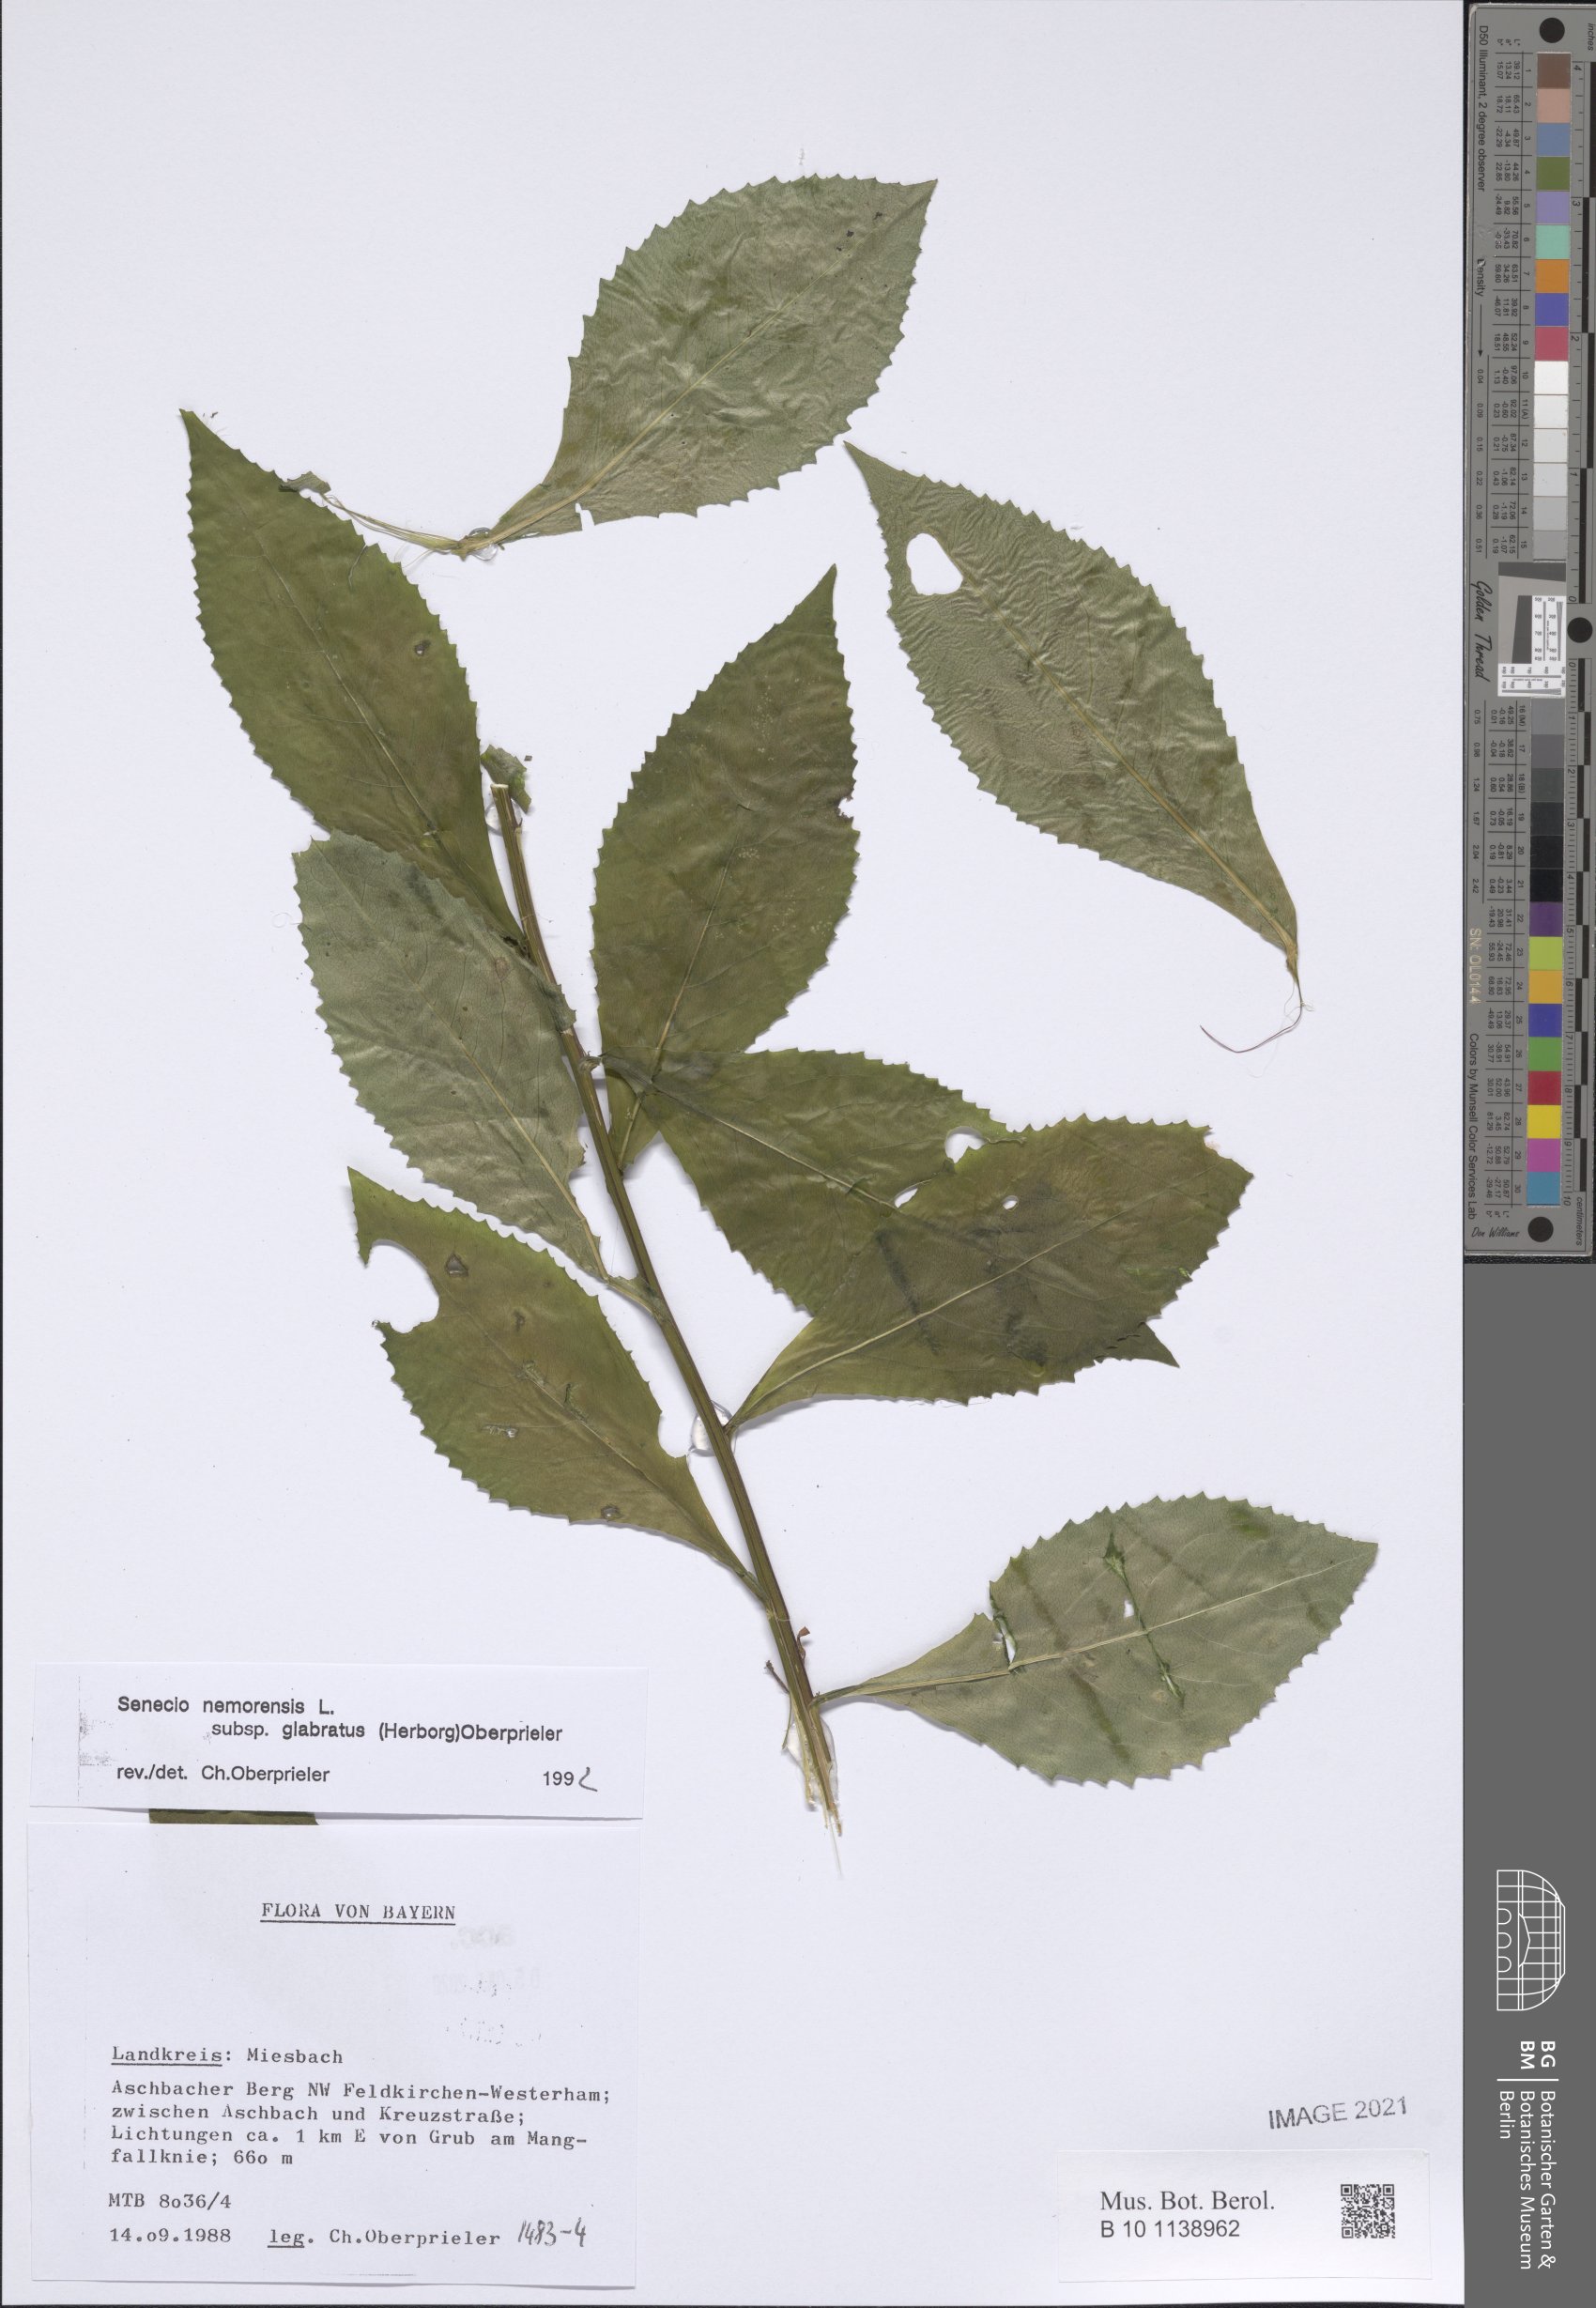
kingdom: Plantae
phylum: Tracheophyta
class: Magnoliopsida
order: Asterales
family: Asteraceae
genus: Senecio
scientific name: Senecio germanicus
